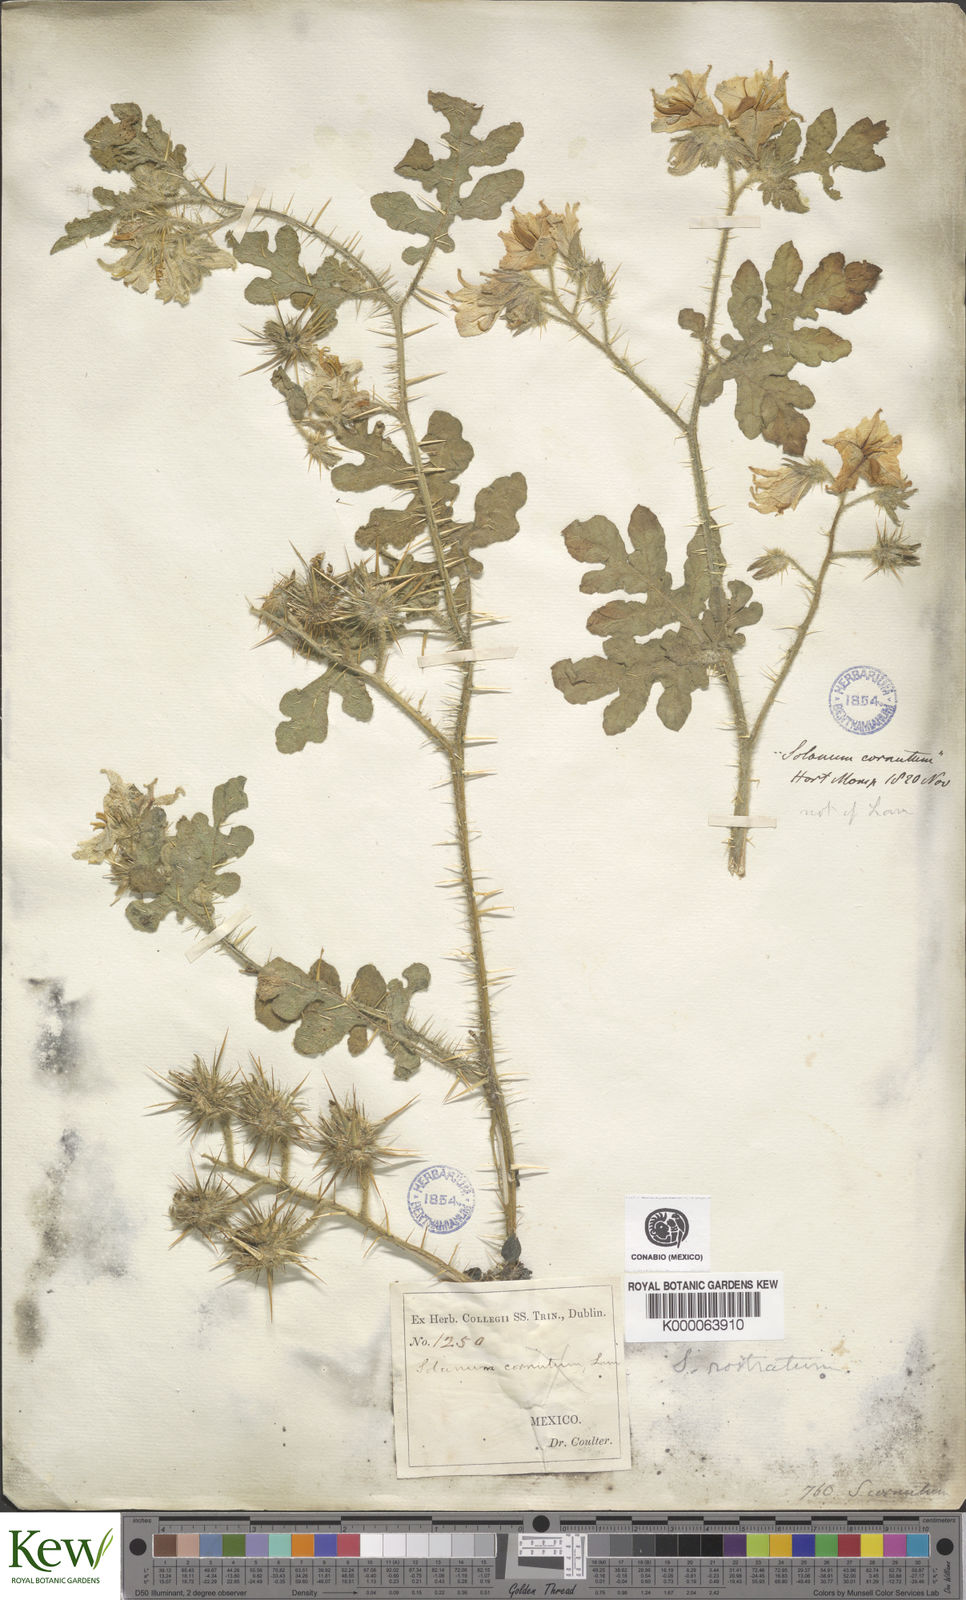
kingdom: Plantae
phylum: Tracheophyta
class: Magnoliopsida
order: Solanales
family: Solanaceae
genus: Solanum
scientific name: Solanum angustifolium
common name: Buffalobur nightshade
